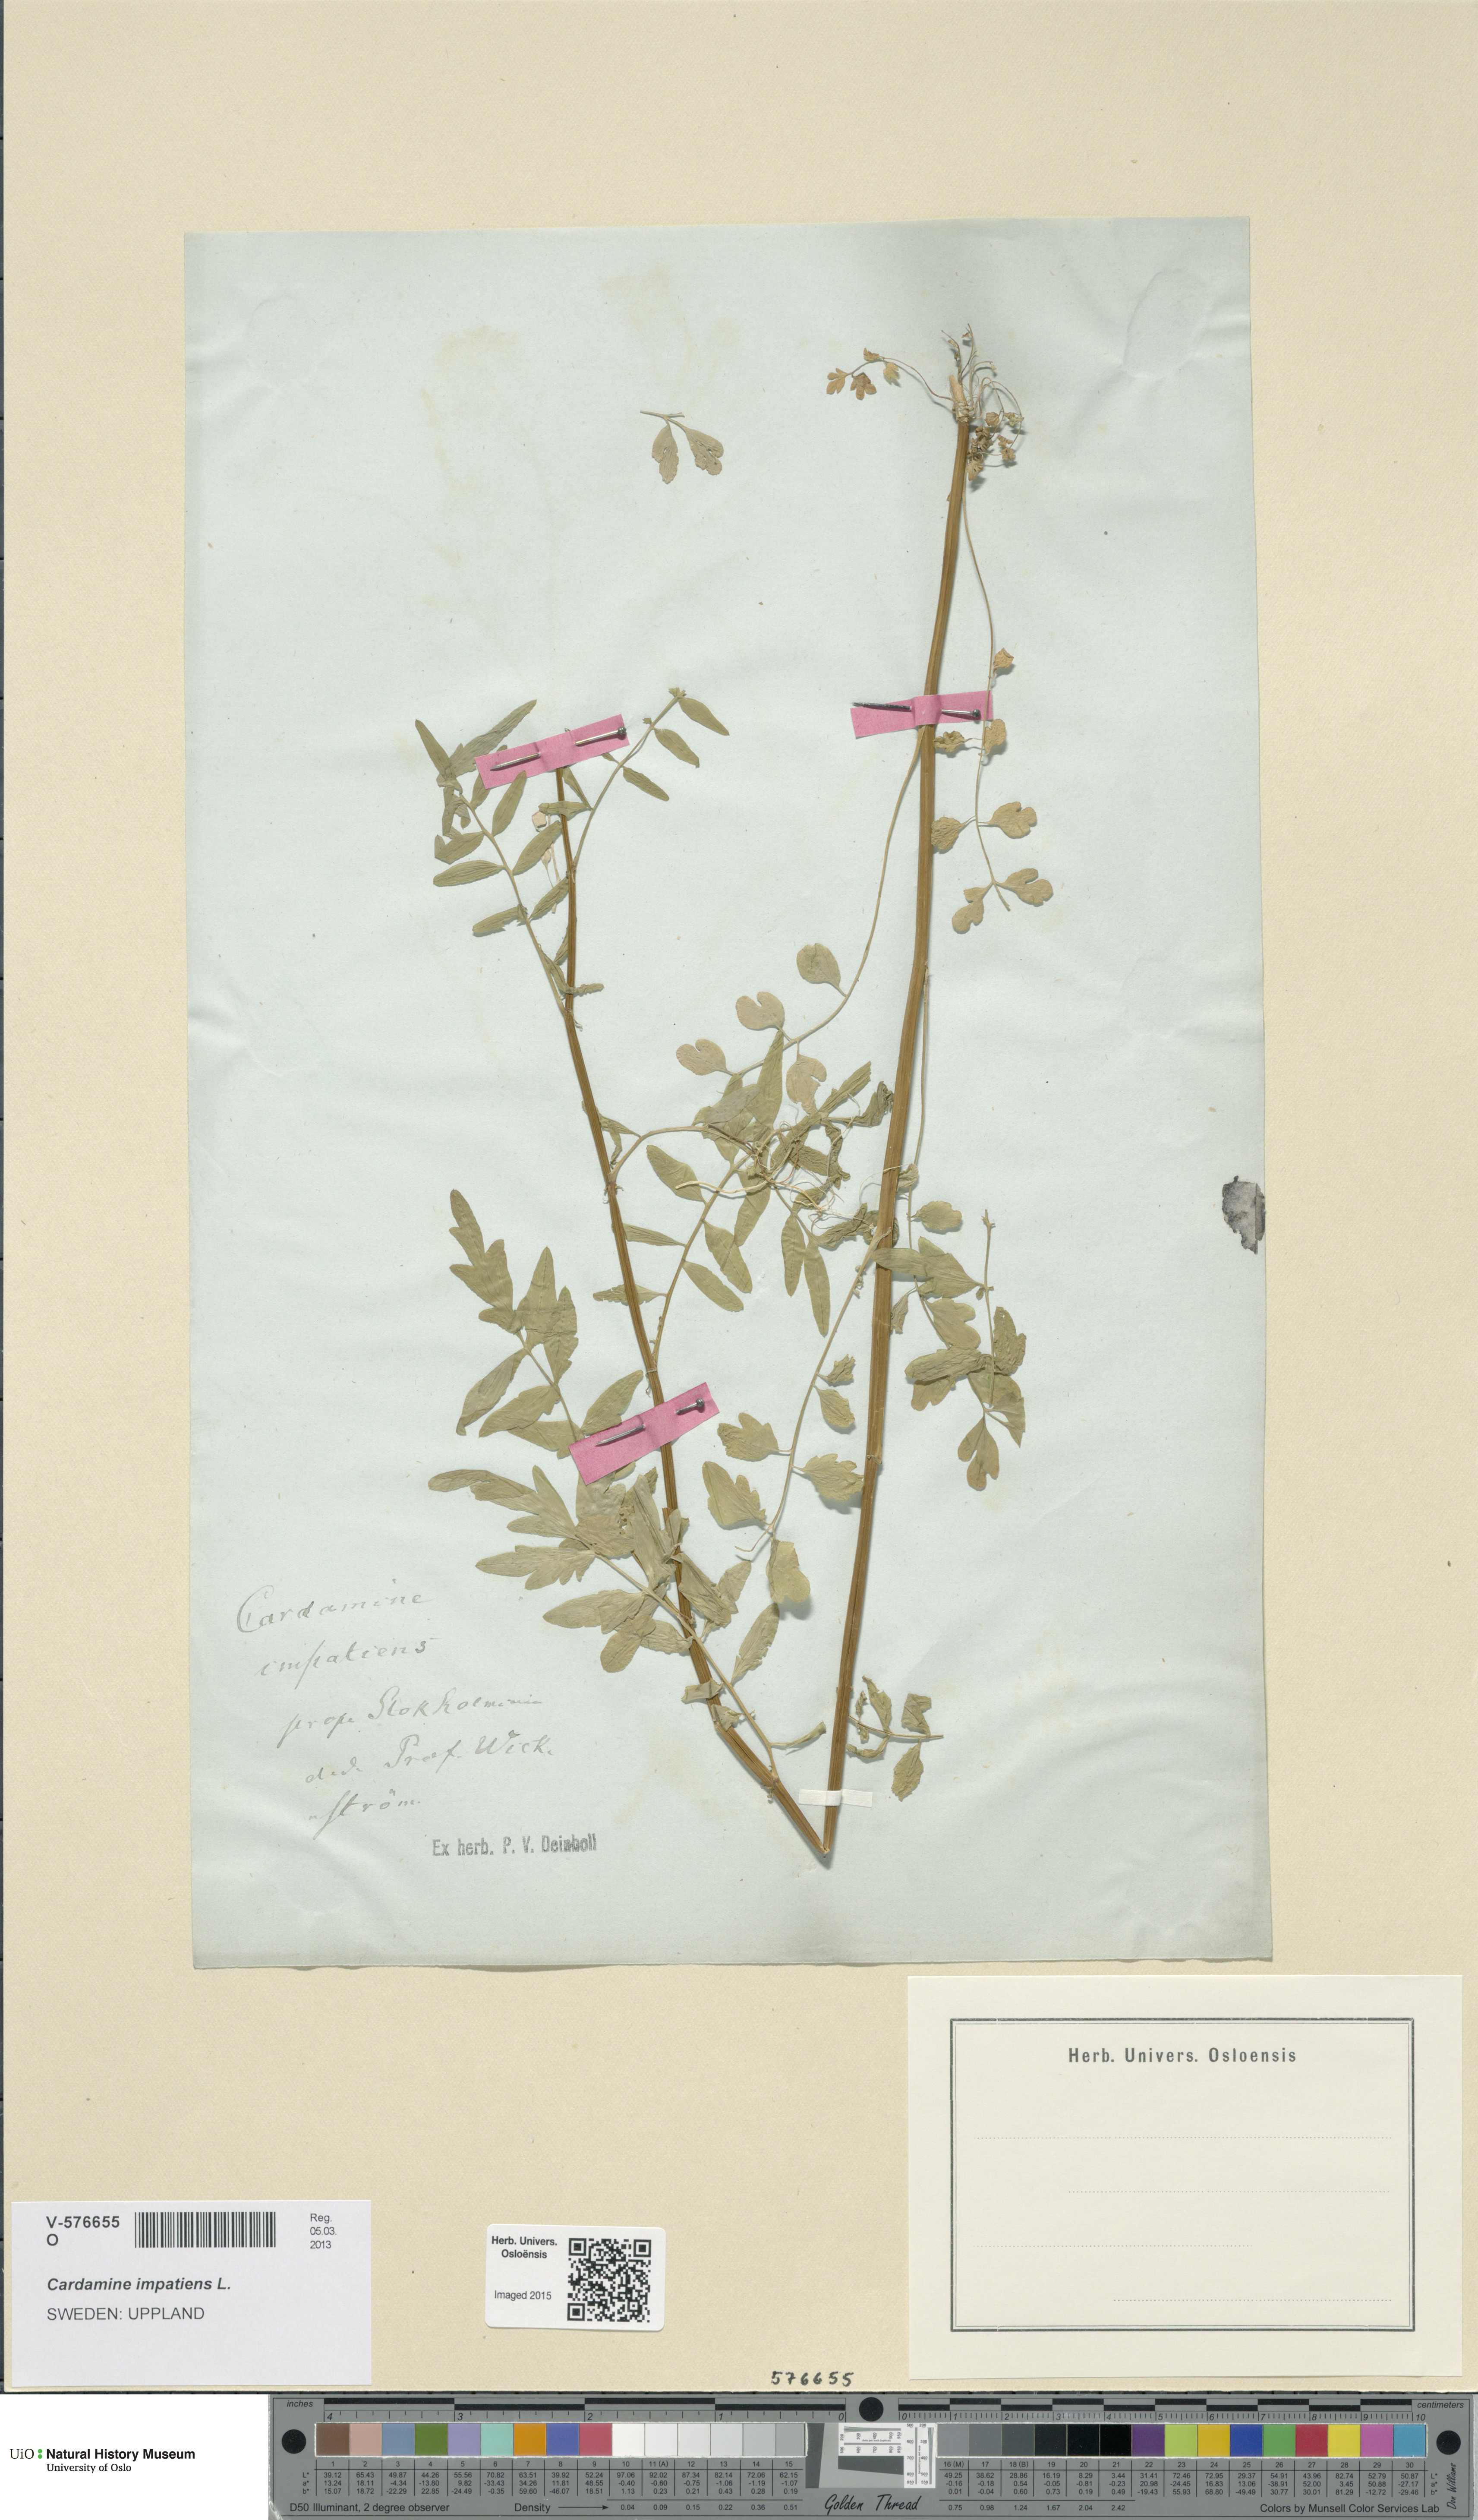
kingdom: Plantae
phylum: Tracheophyta
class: Magnoliopsida
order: Brassicales
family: Brassicaceae
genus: Cardamine
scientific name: Cardamine impatiens
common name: Narrow-leaved bitter-cress
